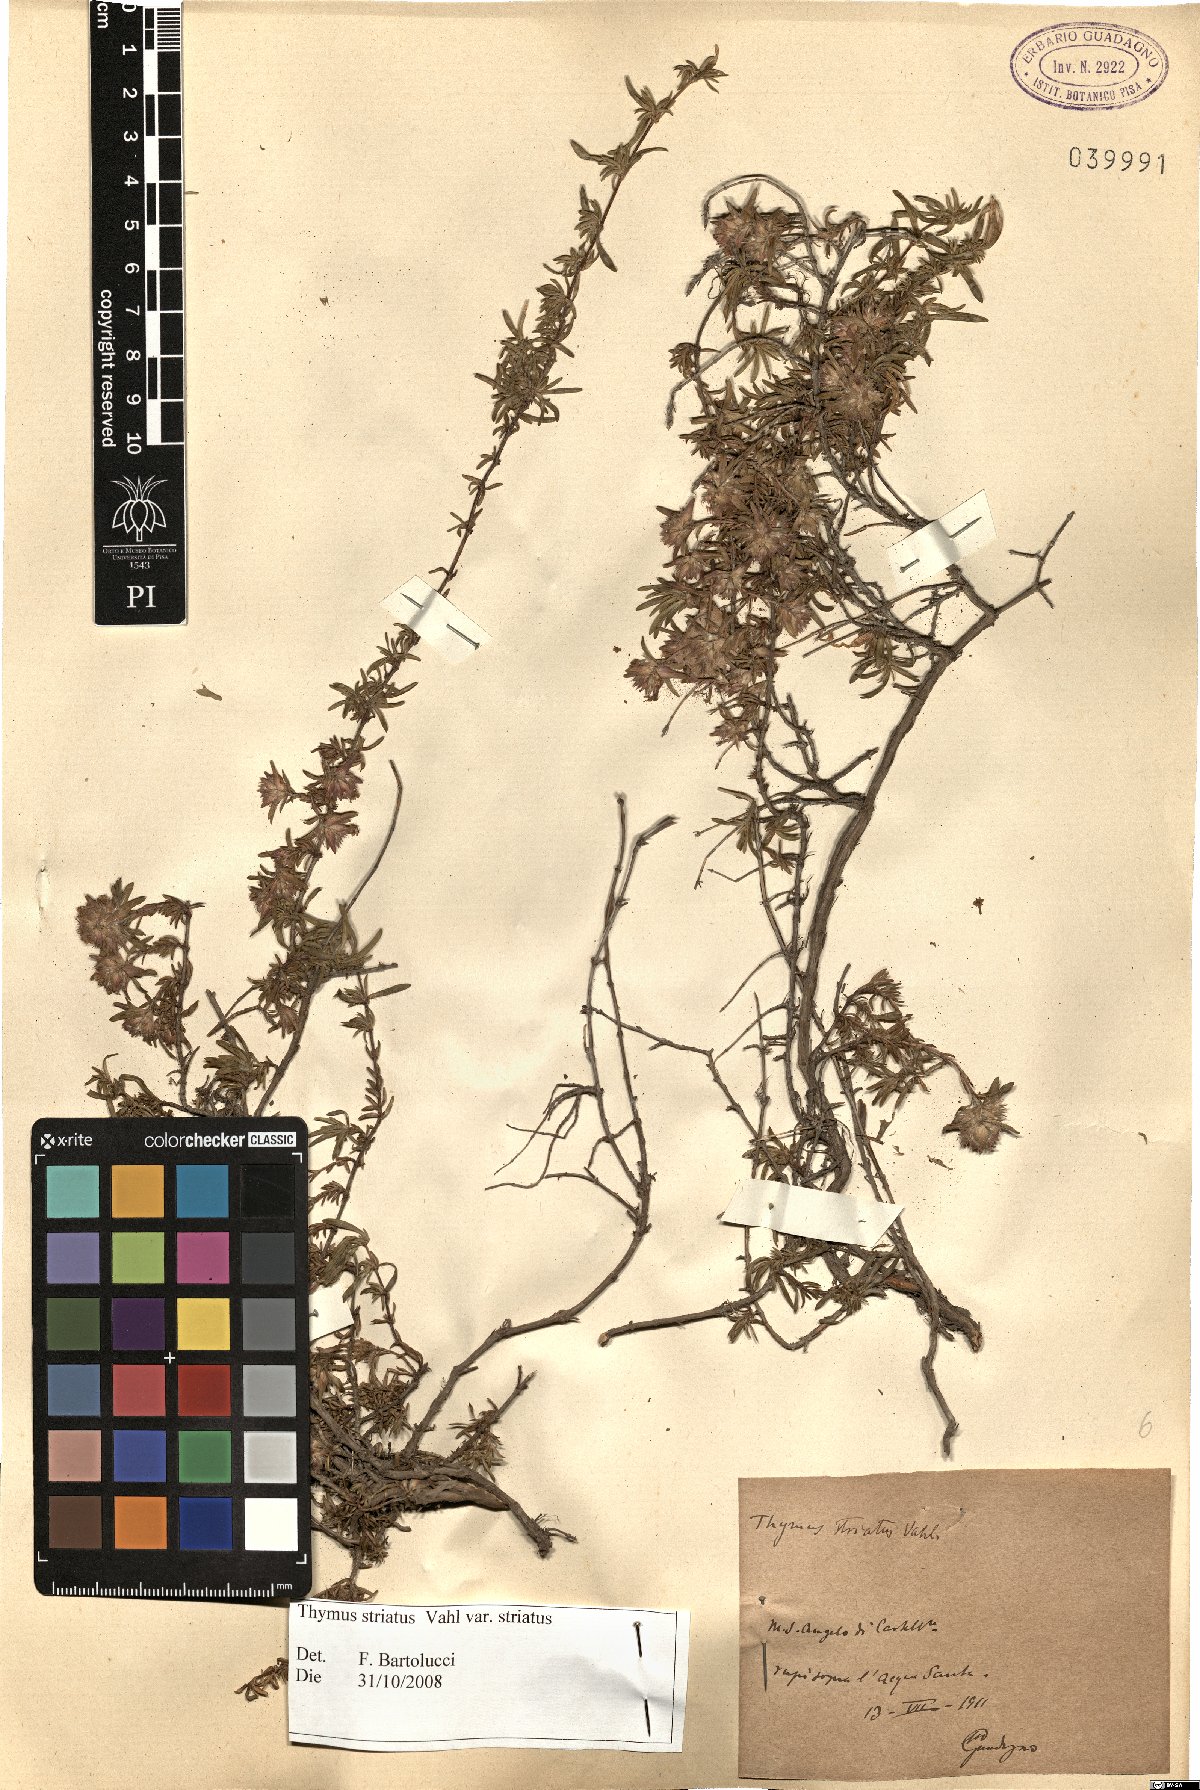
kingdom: Plantae
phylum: Tracheophyta
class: Magnoliopsida
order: Lamiales
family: Lamiaceae
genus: Thymus
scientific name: Thymus striatus
